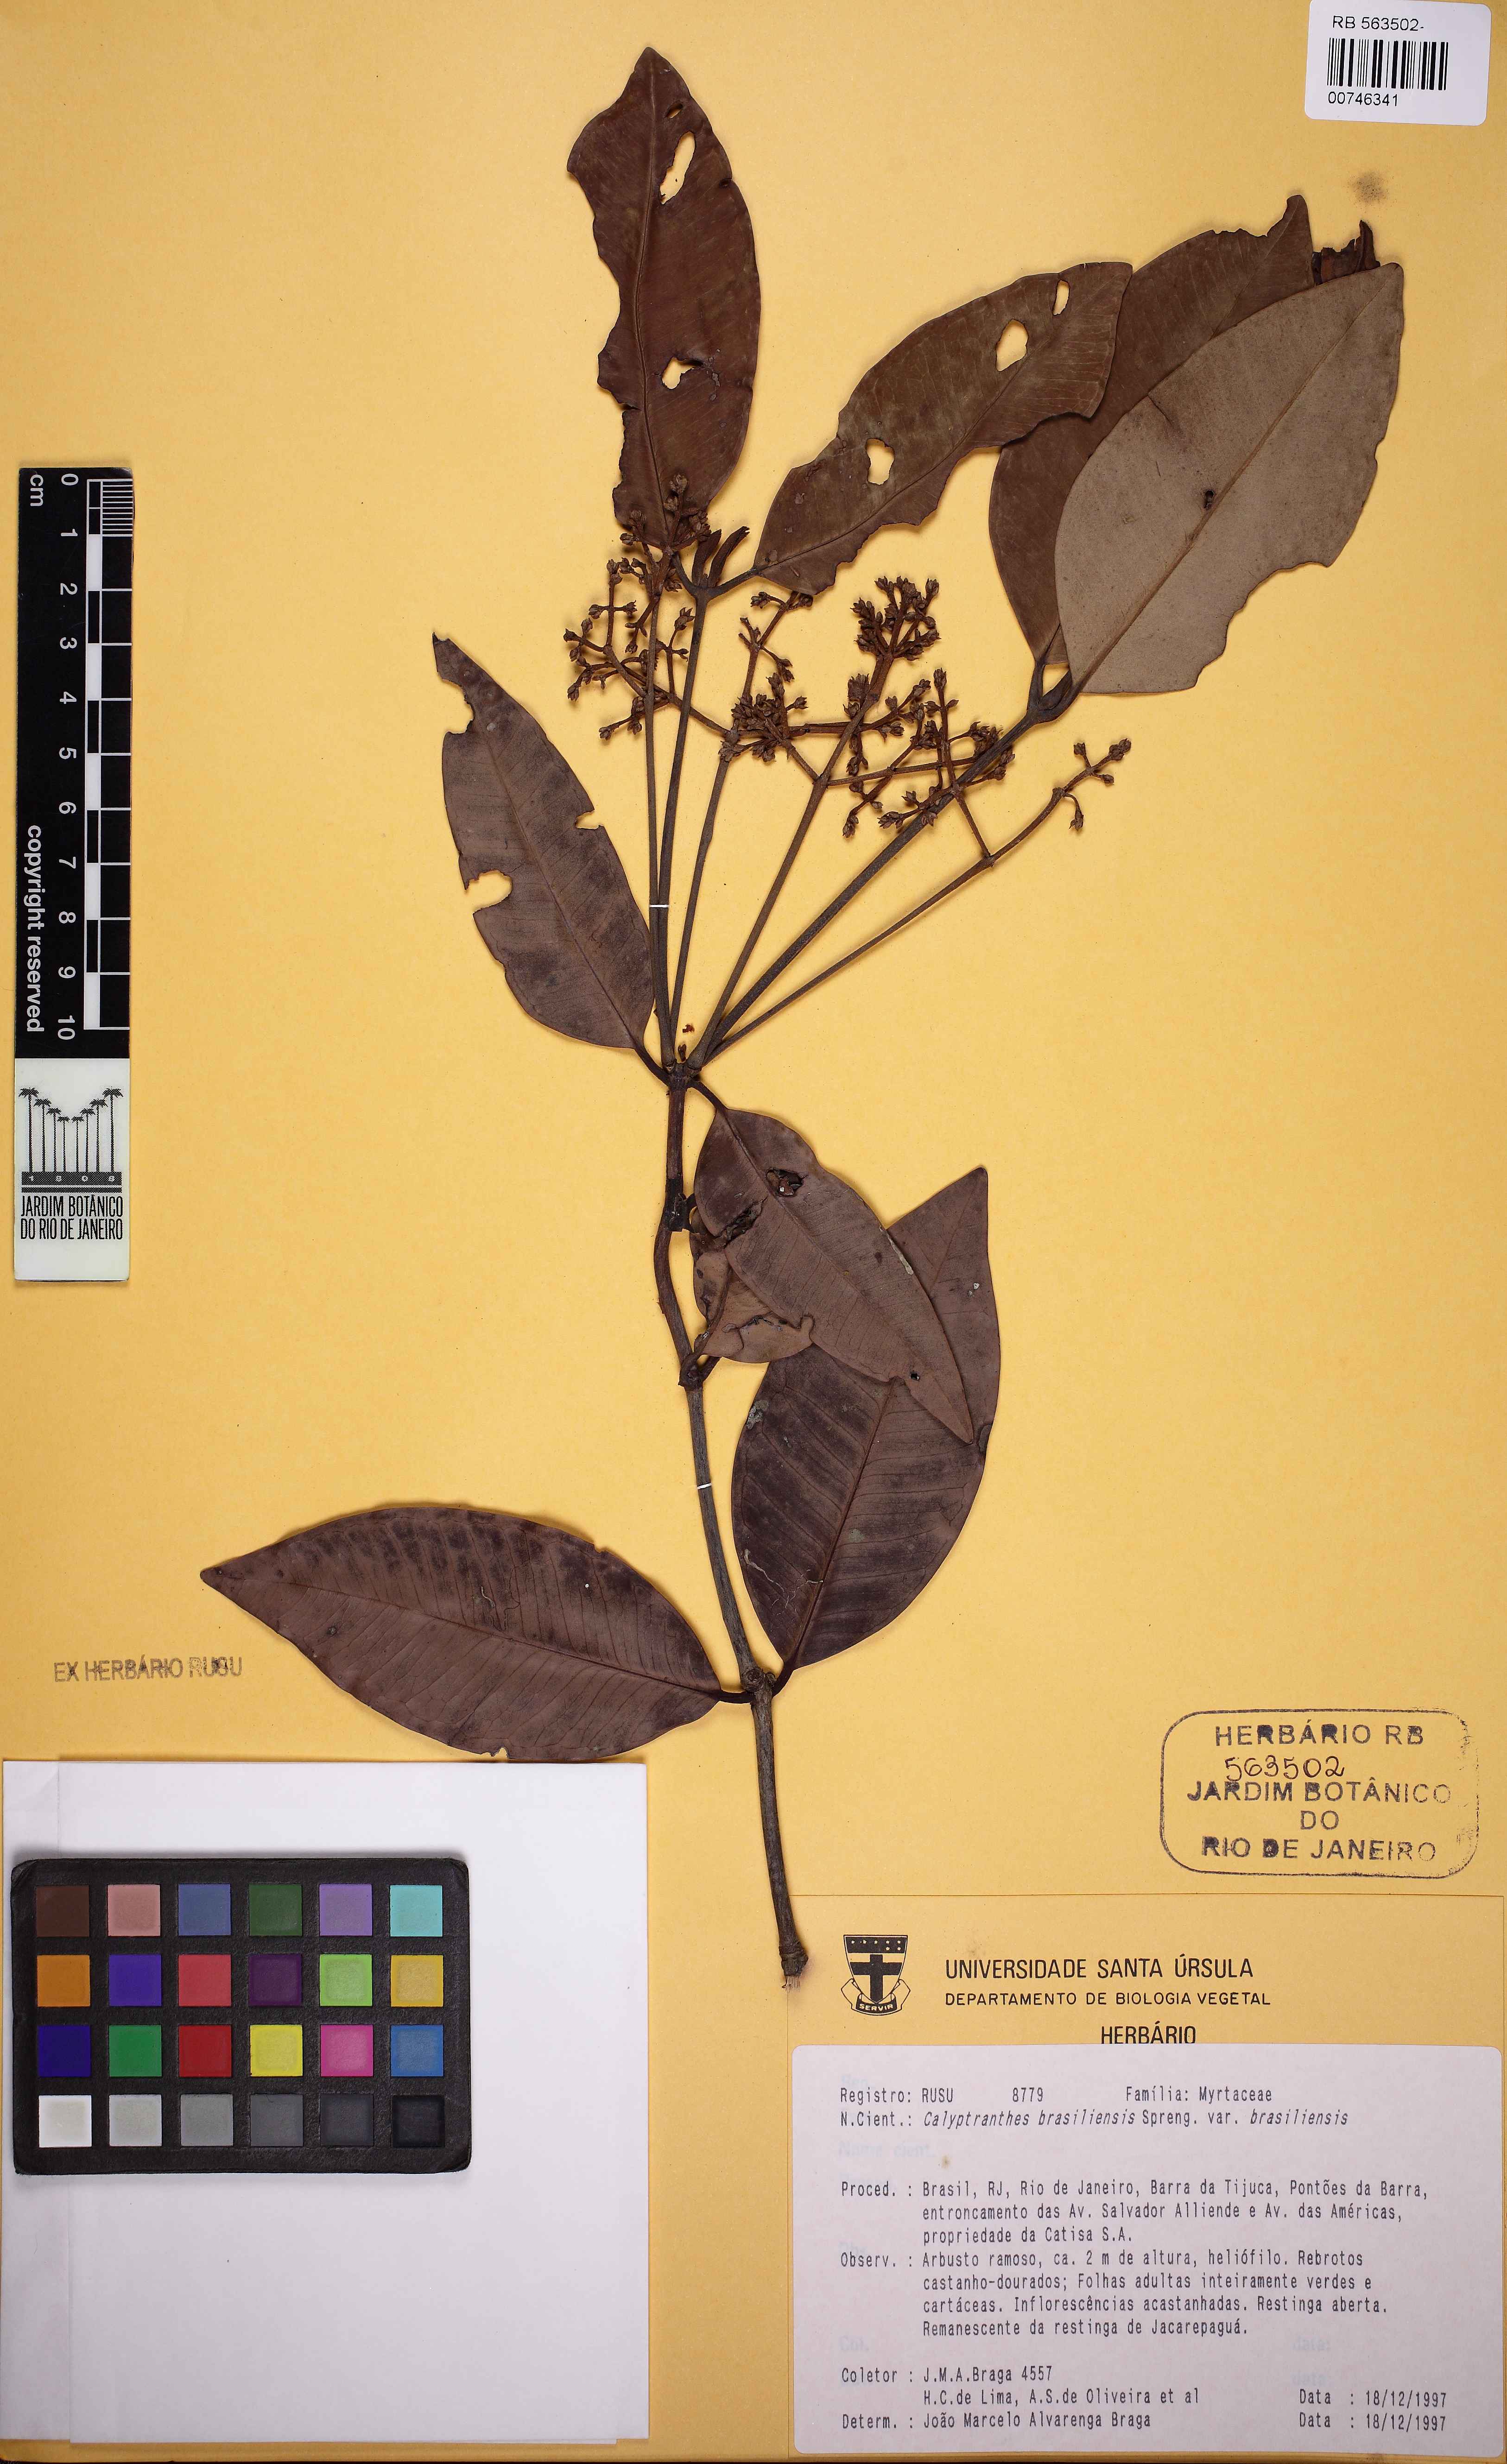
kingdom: Plantae
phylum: Tracheophyta
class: Magnoliopsida
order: Myrtales
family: Myrtaceae
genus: Myrcia
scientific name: Myrcia neobrasiliensis
